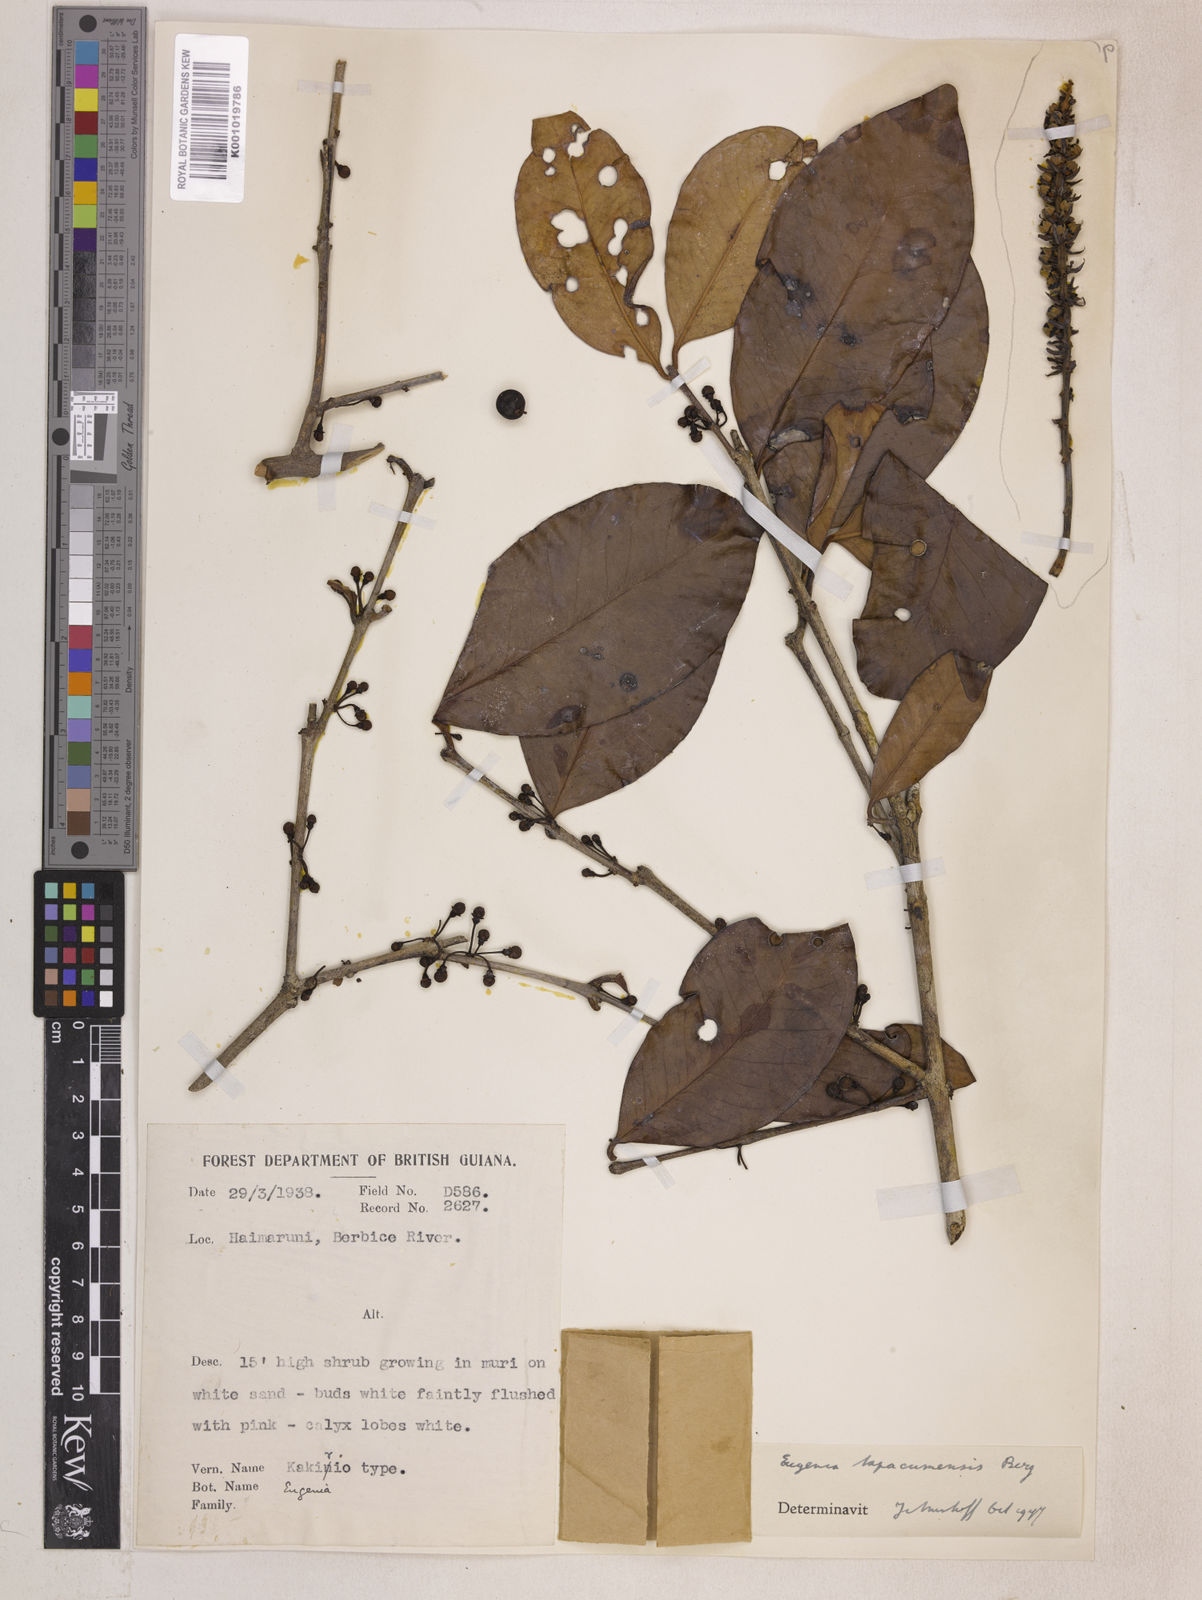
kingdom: Plantae
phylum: Tracheophyta
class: Magnoliopsida
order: Myrtales
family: Myrtaceae
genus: Eugenia
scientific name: Eugenia stictopetala
